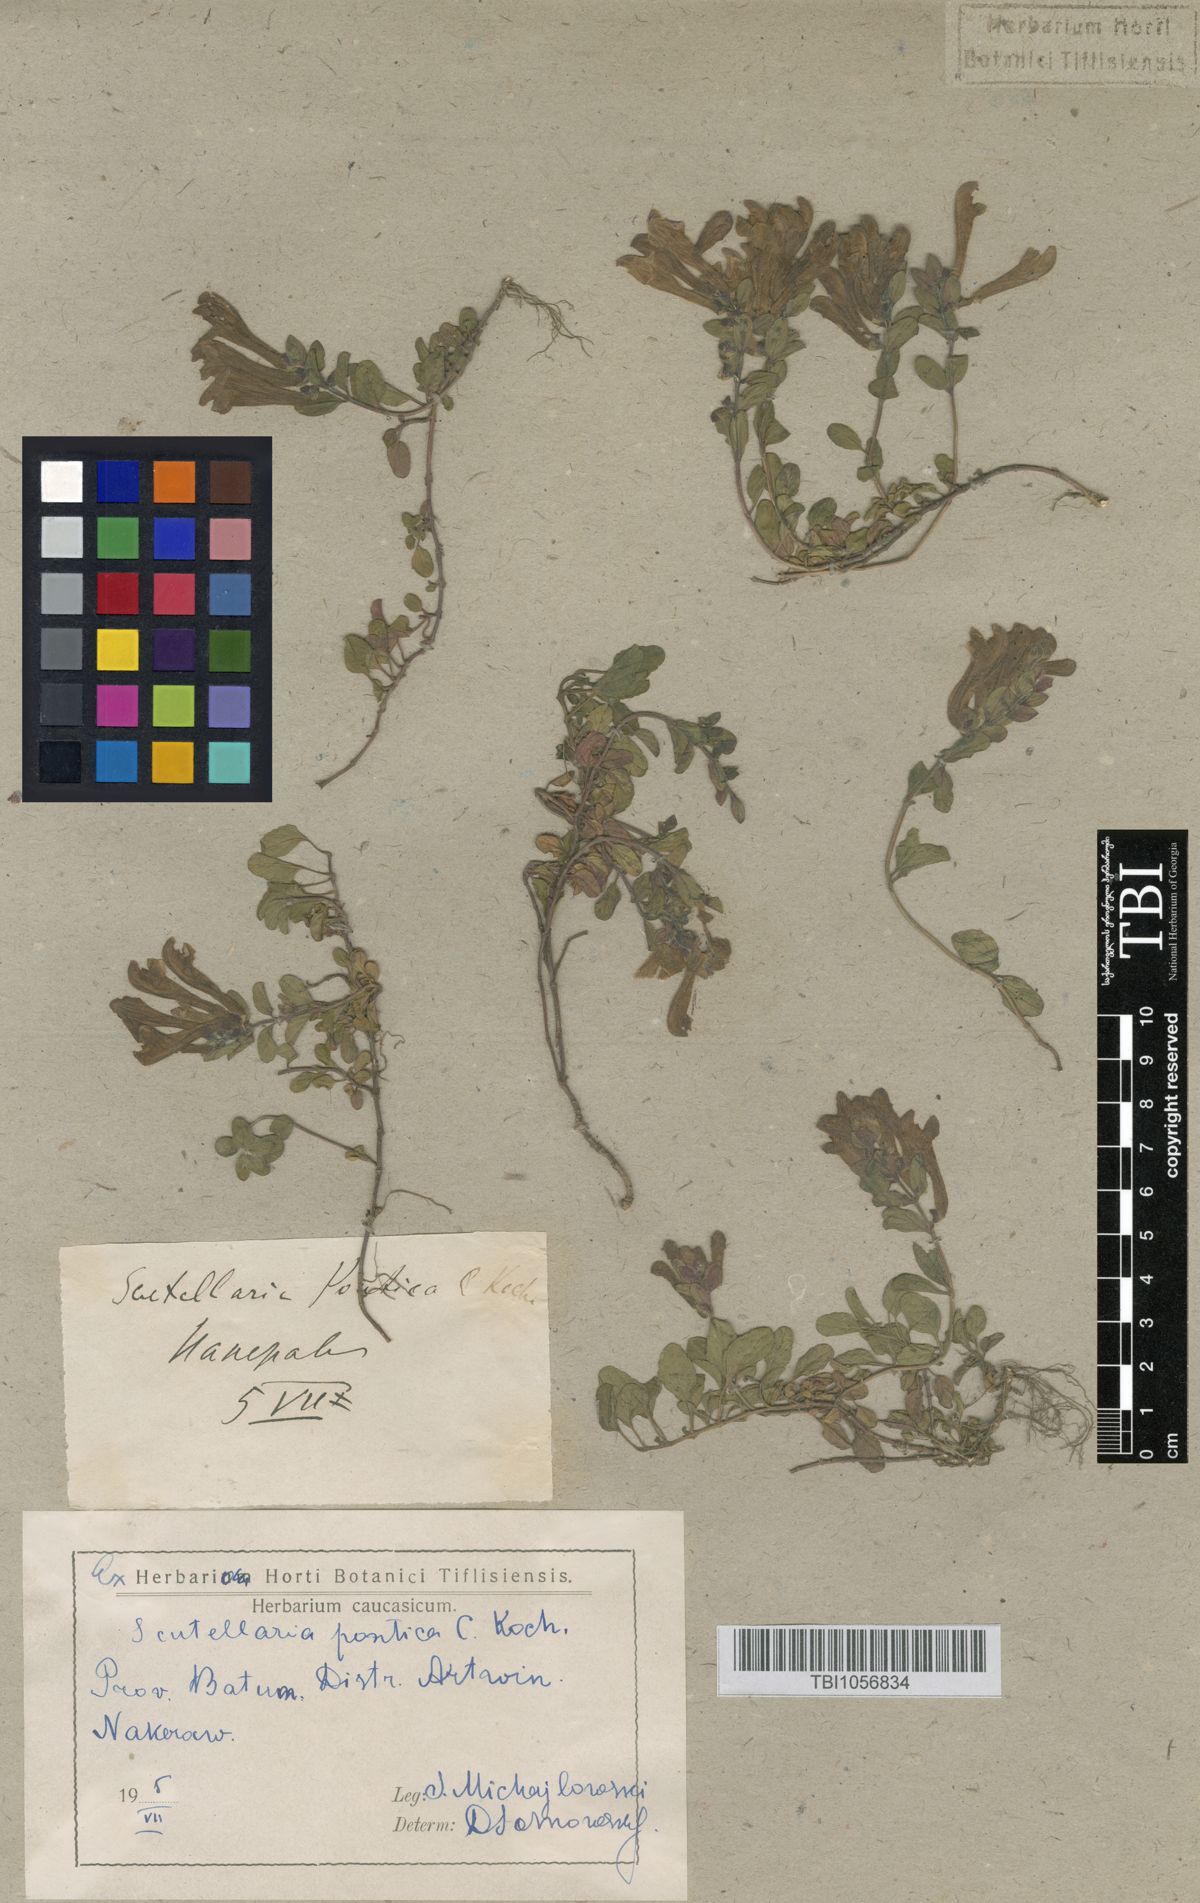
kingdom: Plantae
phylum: Tracheophyta
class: Magnoliopsida
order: Lamiales
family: Lamiaceae
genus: Scutellaria
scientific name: Scutellaria pontica
